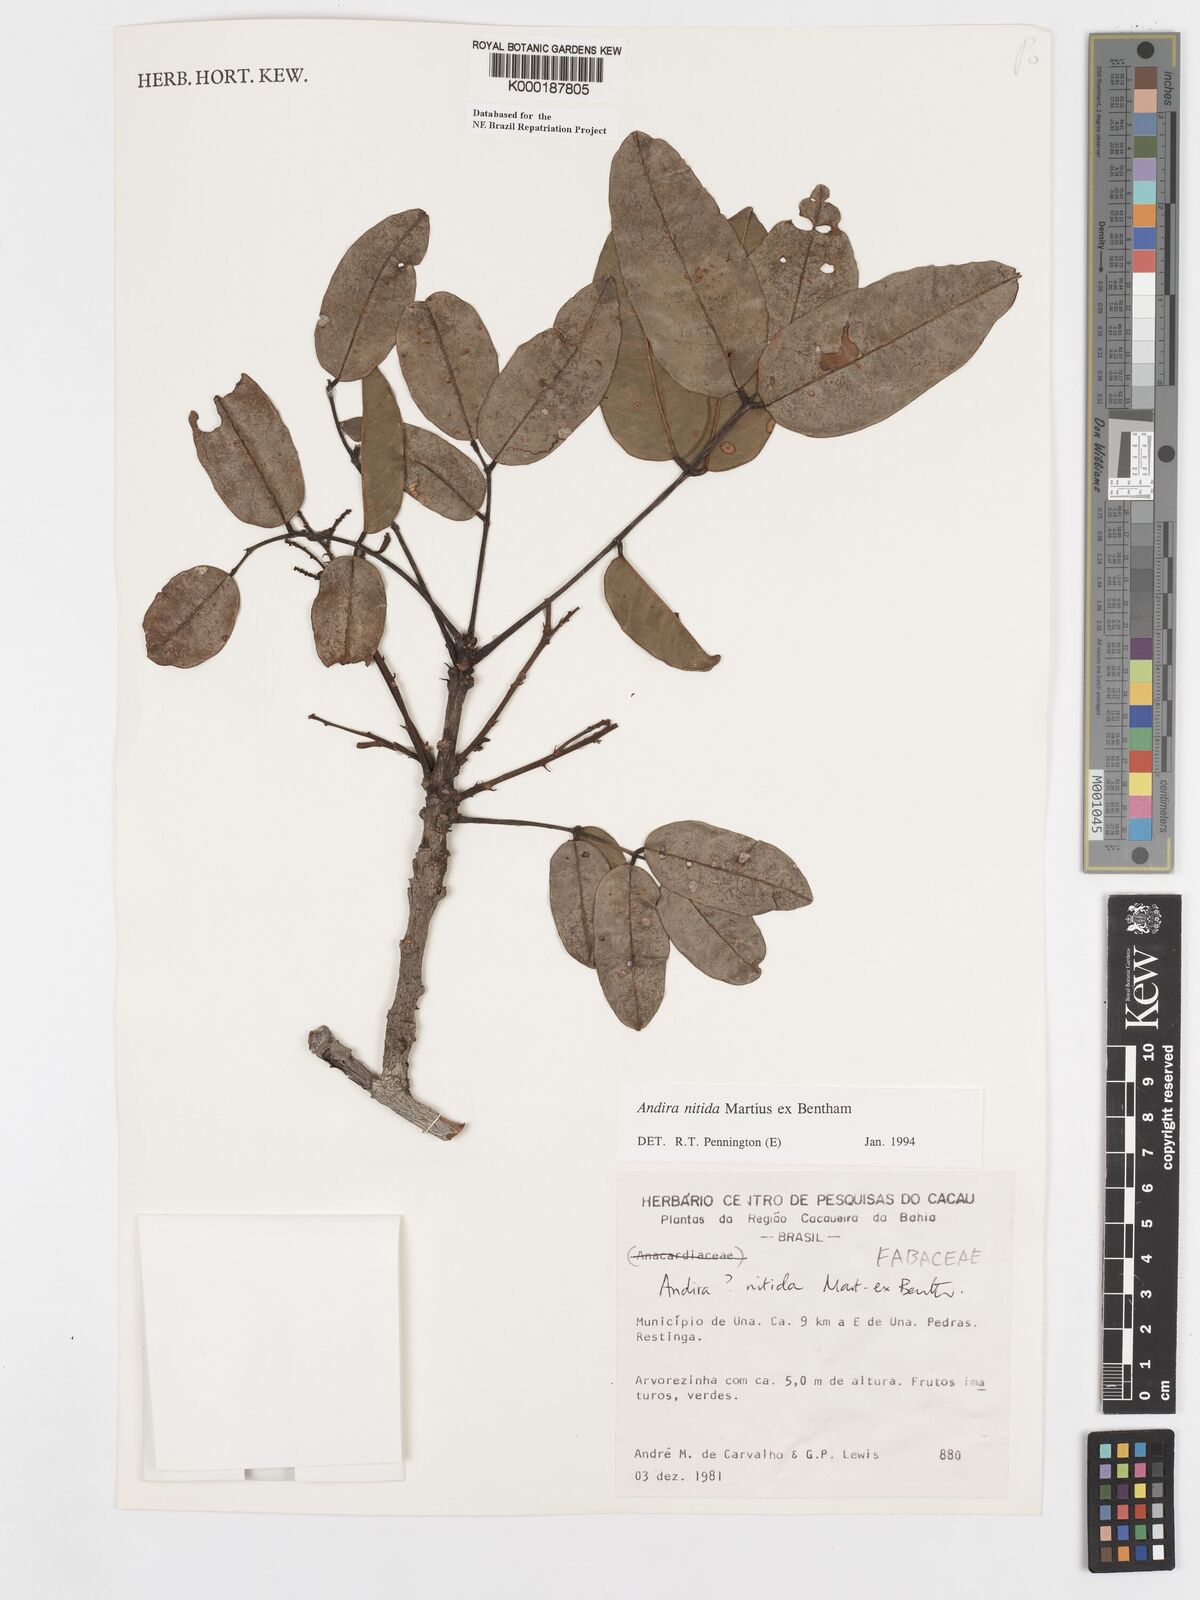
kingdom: Plantae
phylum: Tracheophyta
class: Magnoliopsida
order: Fabales
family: Fabaceae
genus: Andira
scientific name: Andira nitida
